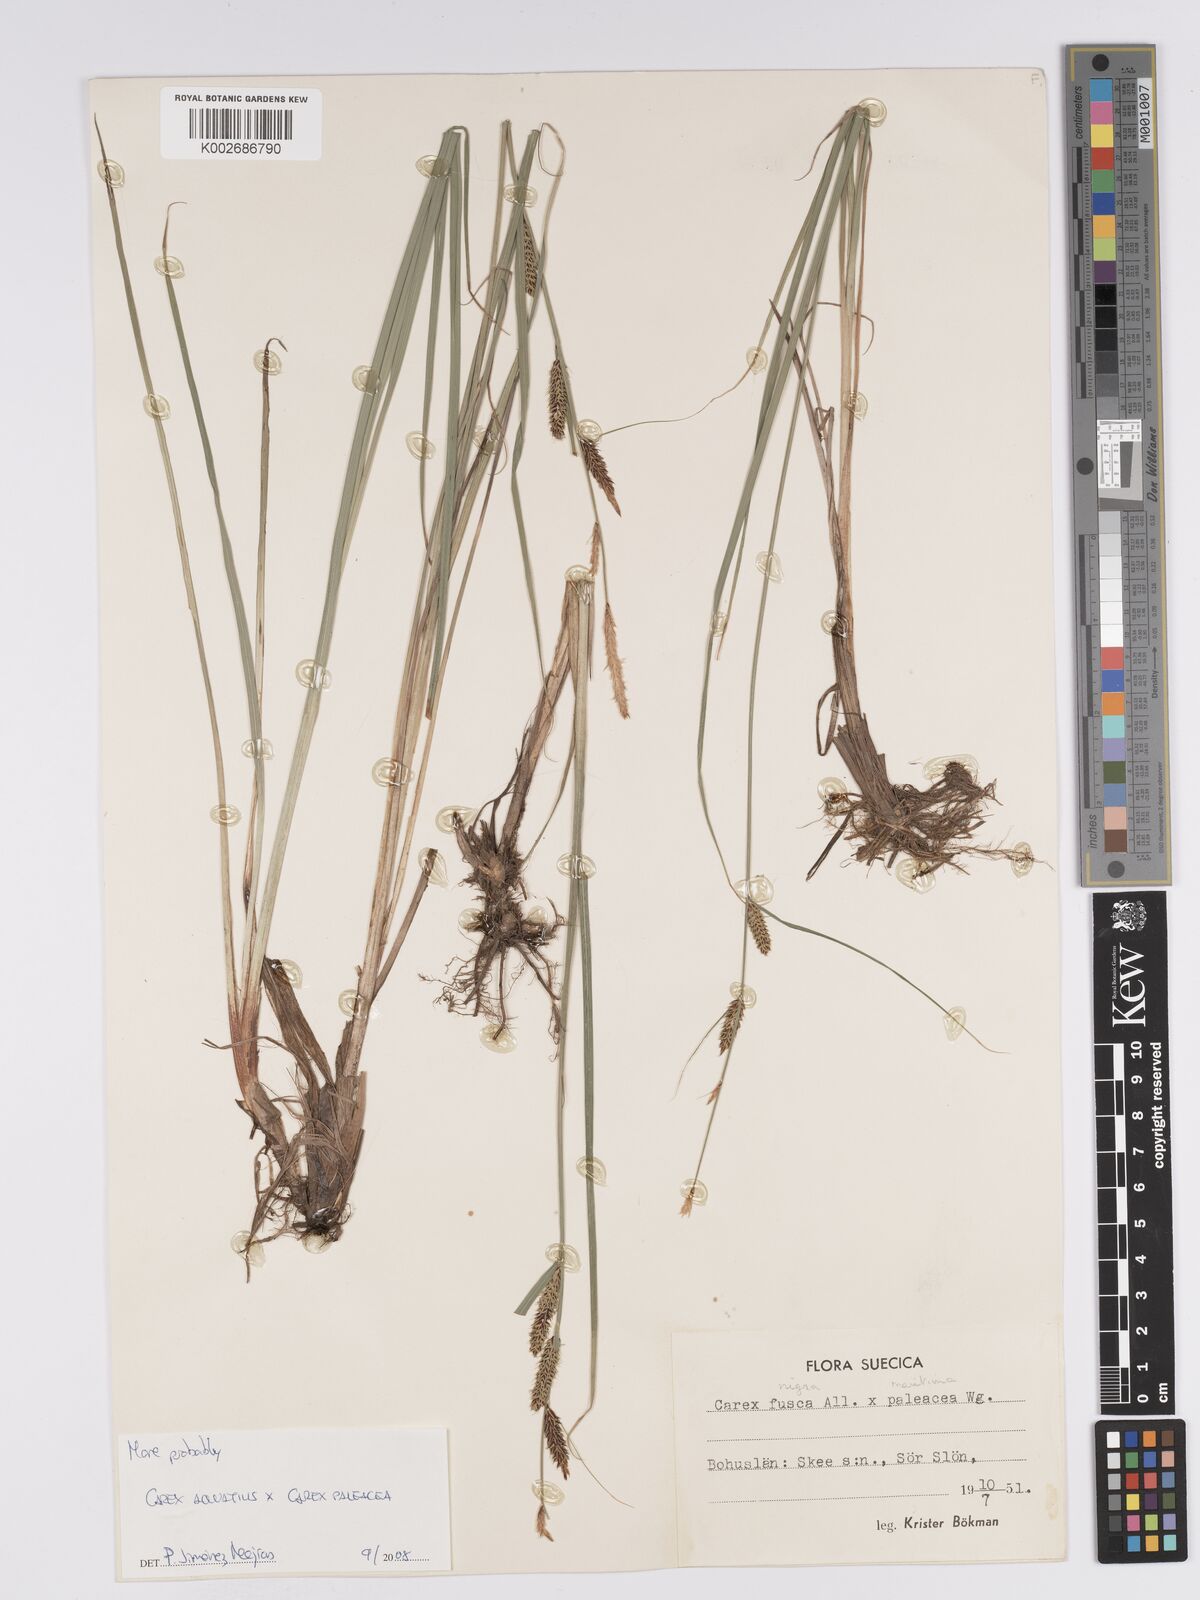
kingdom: Plantae
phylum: Tracheophyta
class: Liliopsida
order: Poales
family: Cyperaceae
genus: Carex
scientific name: Carex aquatilis
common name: Water sedge
